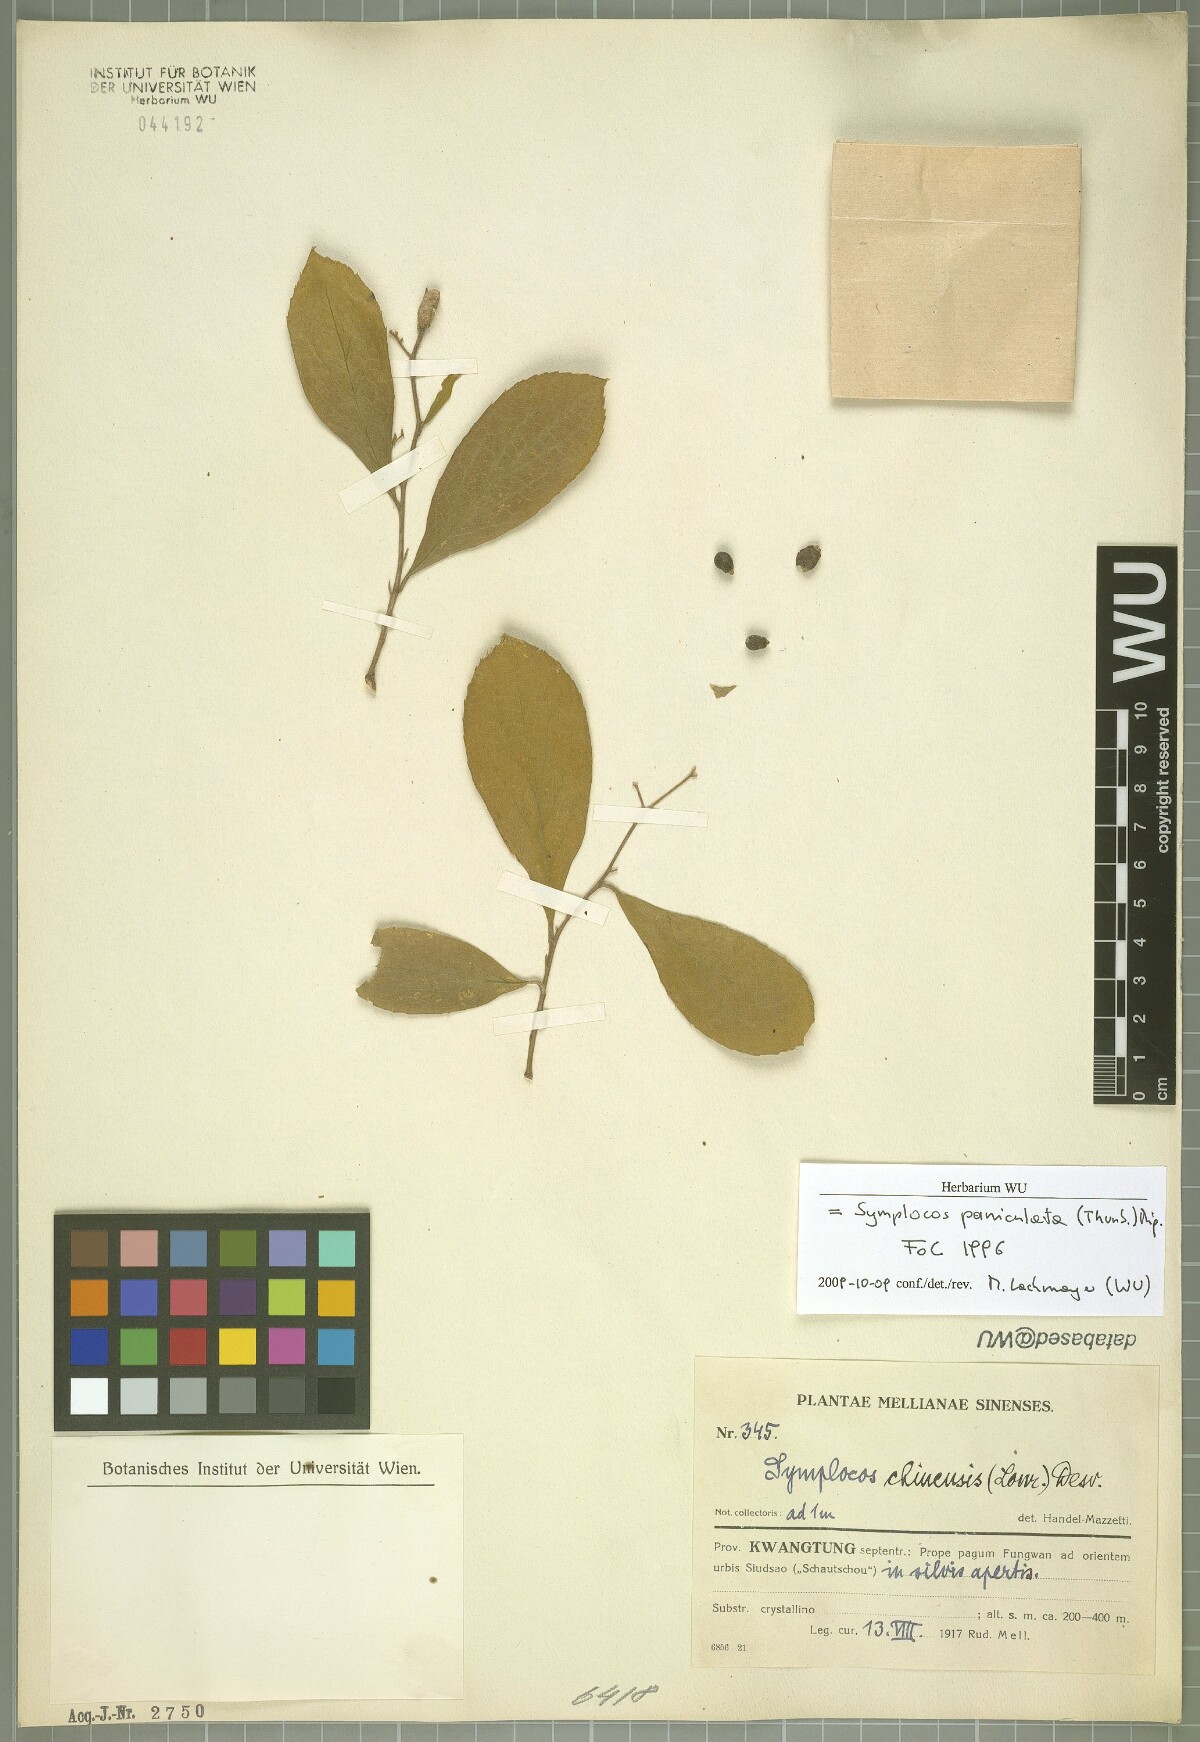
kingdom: Plantae
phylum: Tracheophyta
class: Magnoliopsida
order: Ericales
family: Symplocaceae
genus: Symplocos
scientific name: Symplocos paniculata
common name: Sapphire-berry
